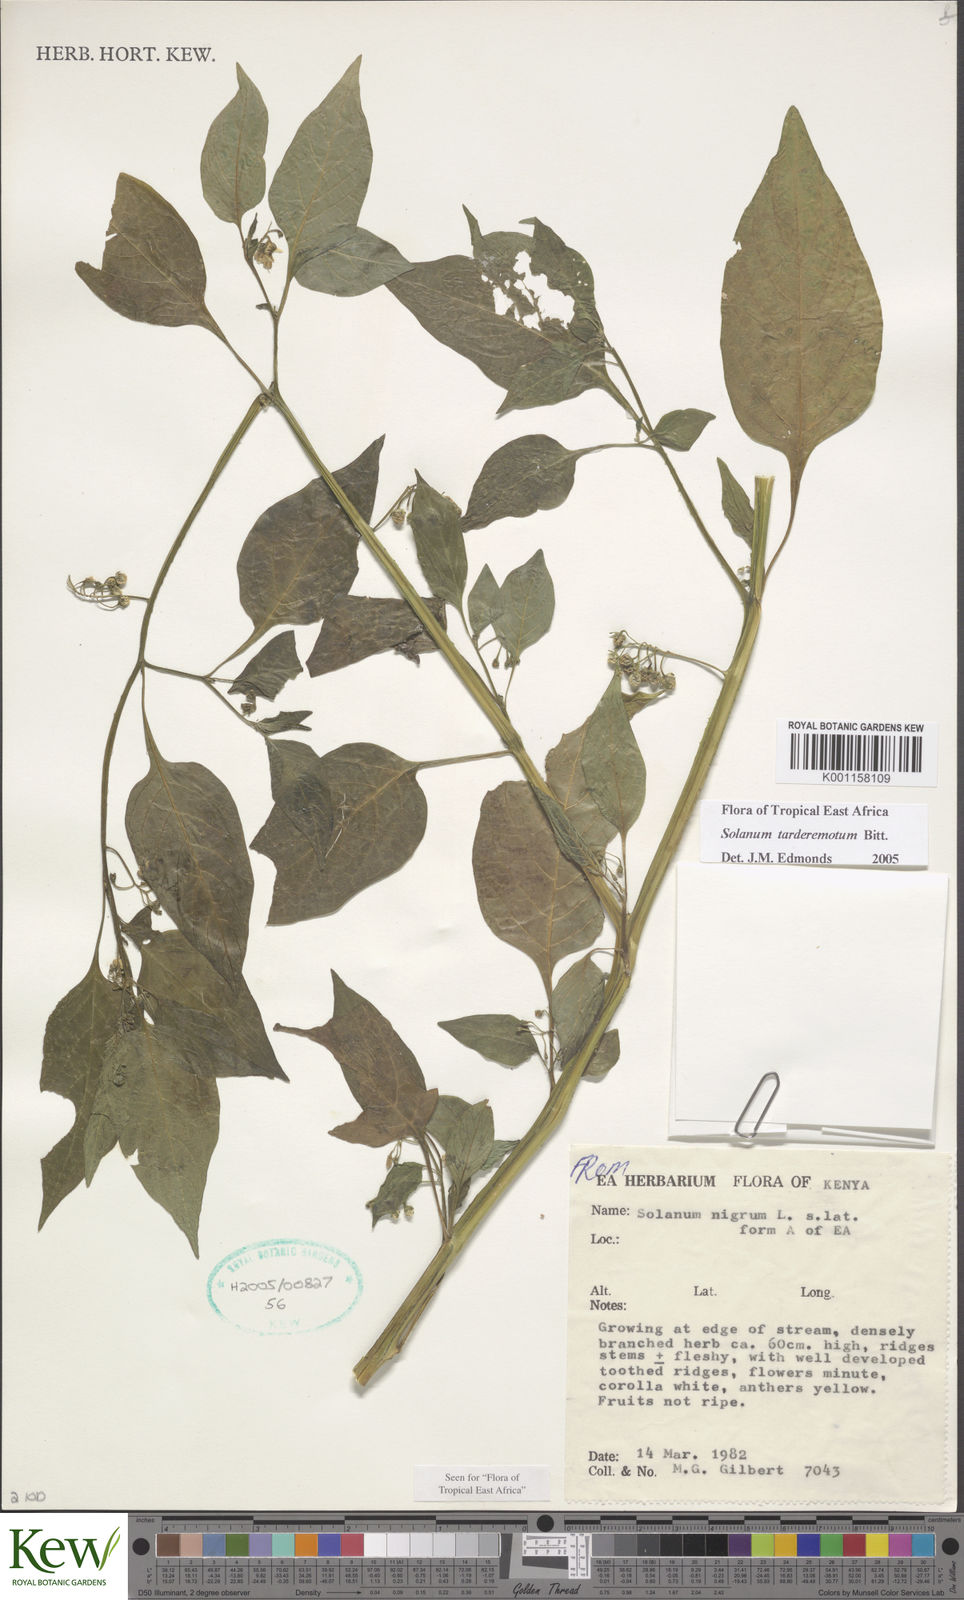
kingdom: Plantae
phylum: Tracheophyta
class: Magnoliopsida
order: Solanales
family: Solanaceae
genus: Solanum
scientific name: Solanum tarderemotum
